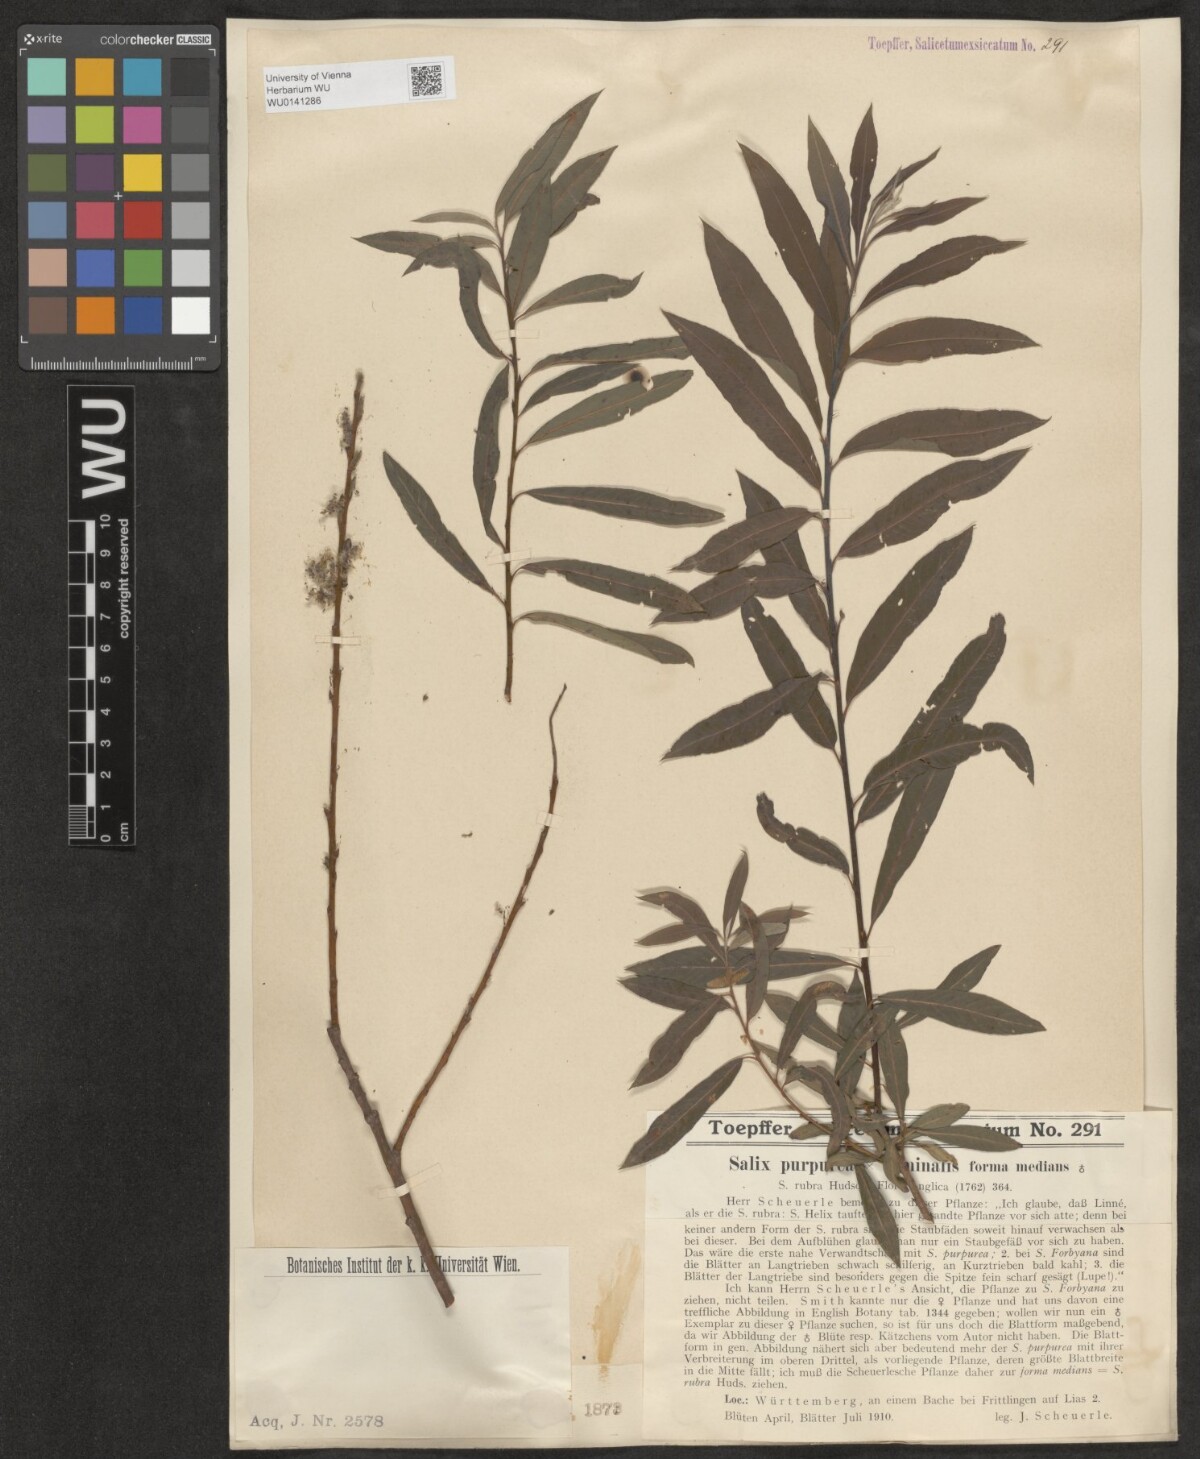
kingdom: Plantae
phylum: Tracheophyta
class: Magnoliopsida
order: Malpighiales
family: Salicaceae
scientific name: Salicaceae
